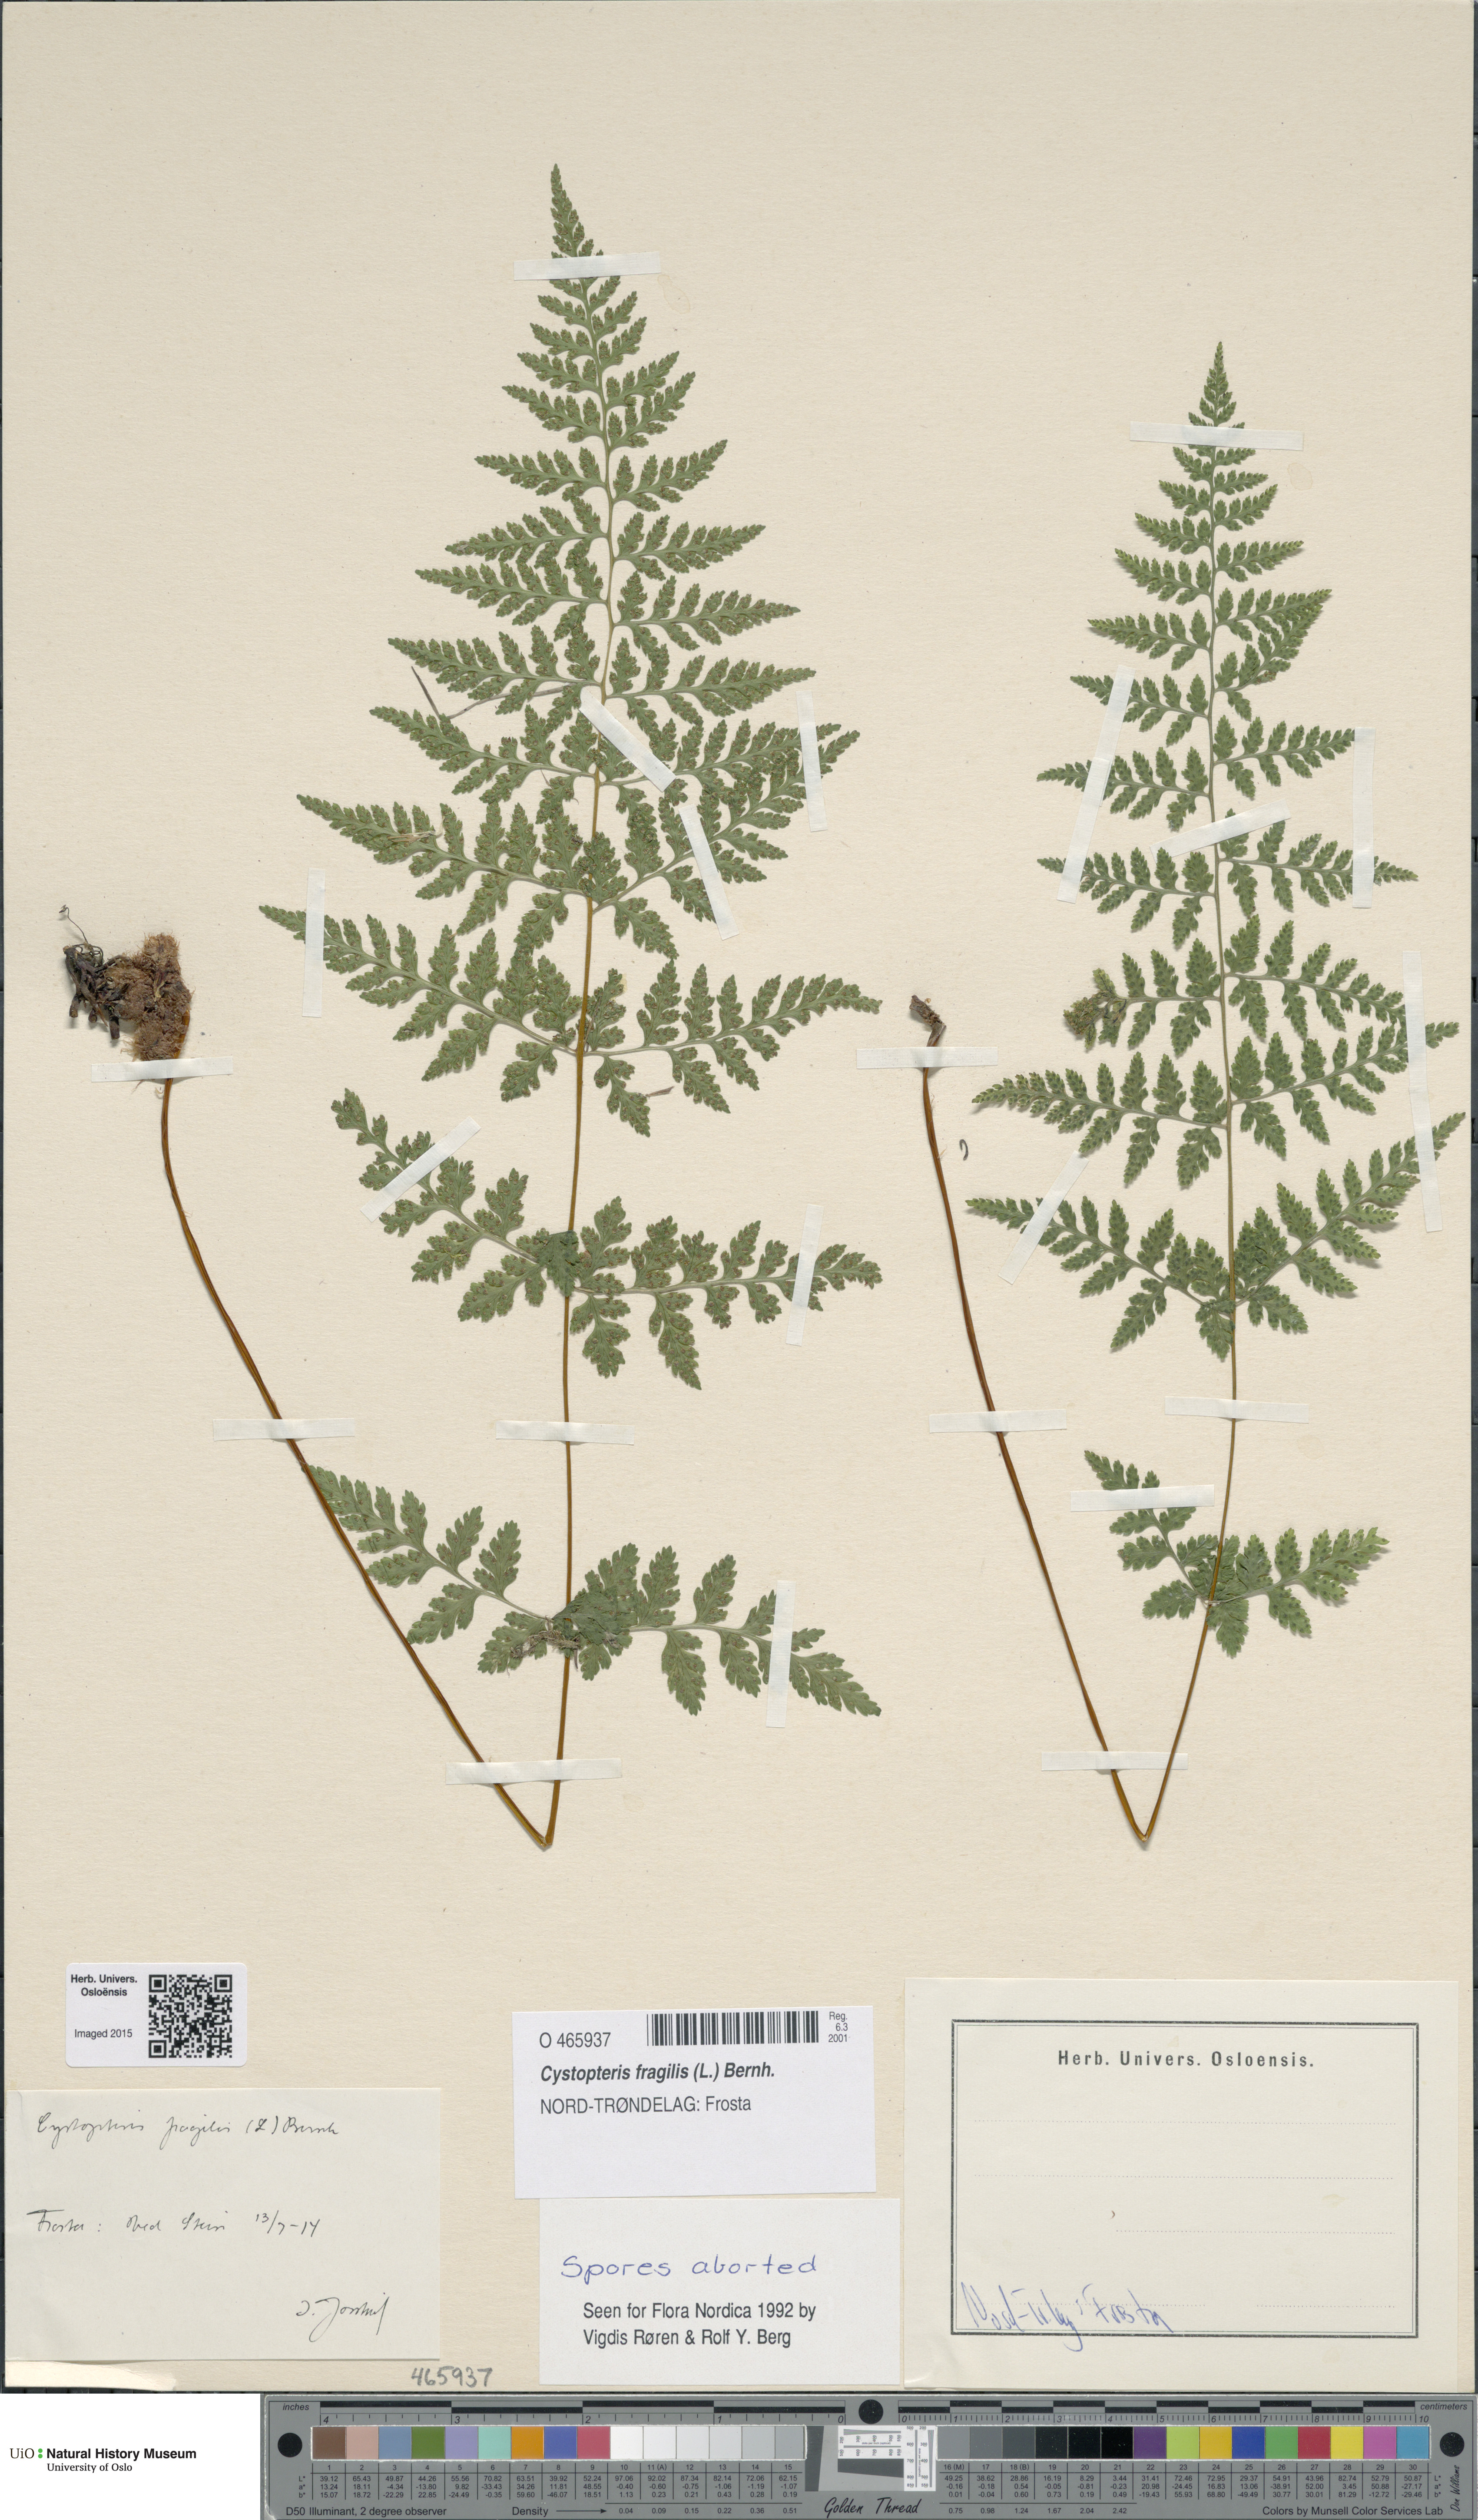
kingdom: Plantae
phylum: Tracheophyta
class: Polypodiopsida
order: Polypodiales
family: Cystopteridaceae
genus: Cystopteris
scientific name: Cystopteris fragilis
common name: Brittle bladder fern
